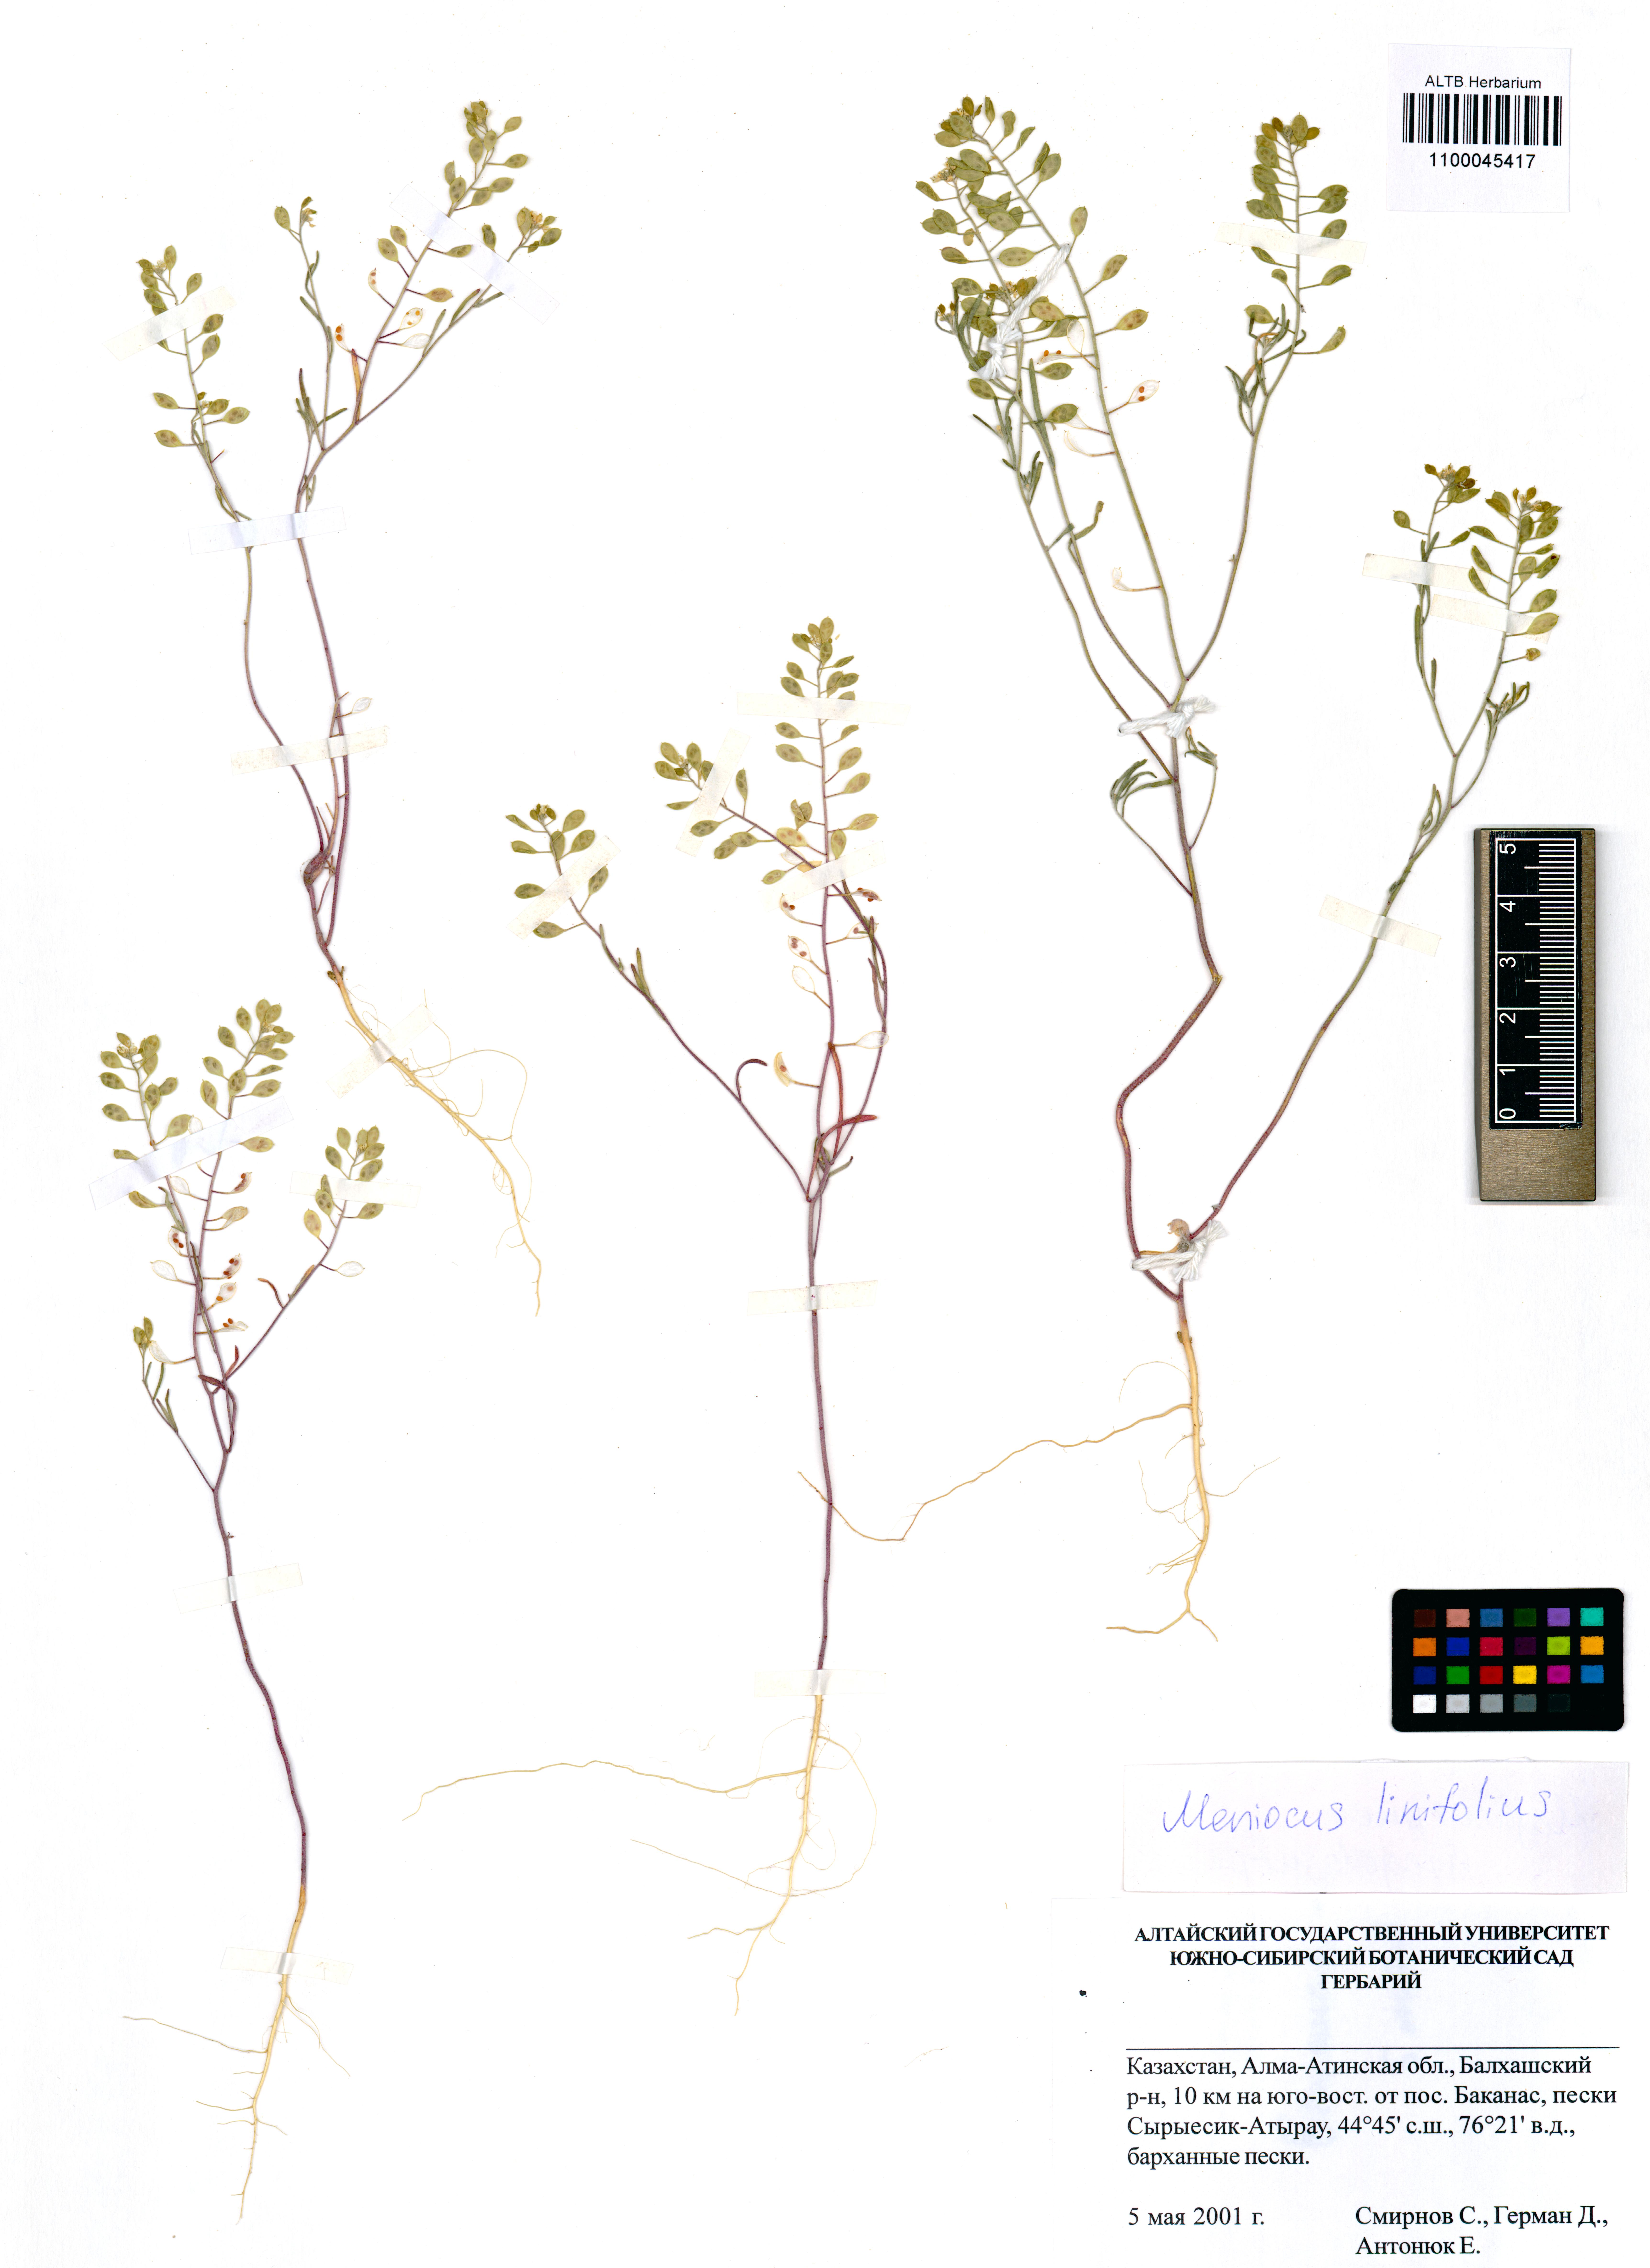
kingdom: Plantae
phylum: Tracheophyta
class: Magnoliopsida
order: Brassicales
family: Brassicaceae
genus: Meniocus
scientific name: Meniocus linifolius
